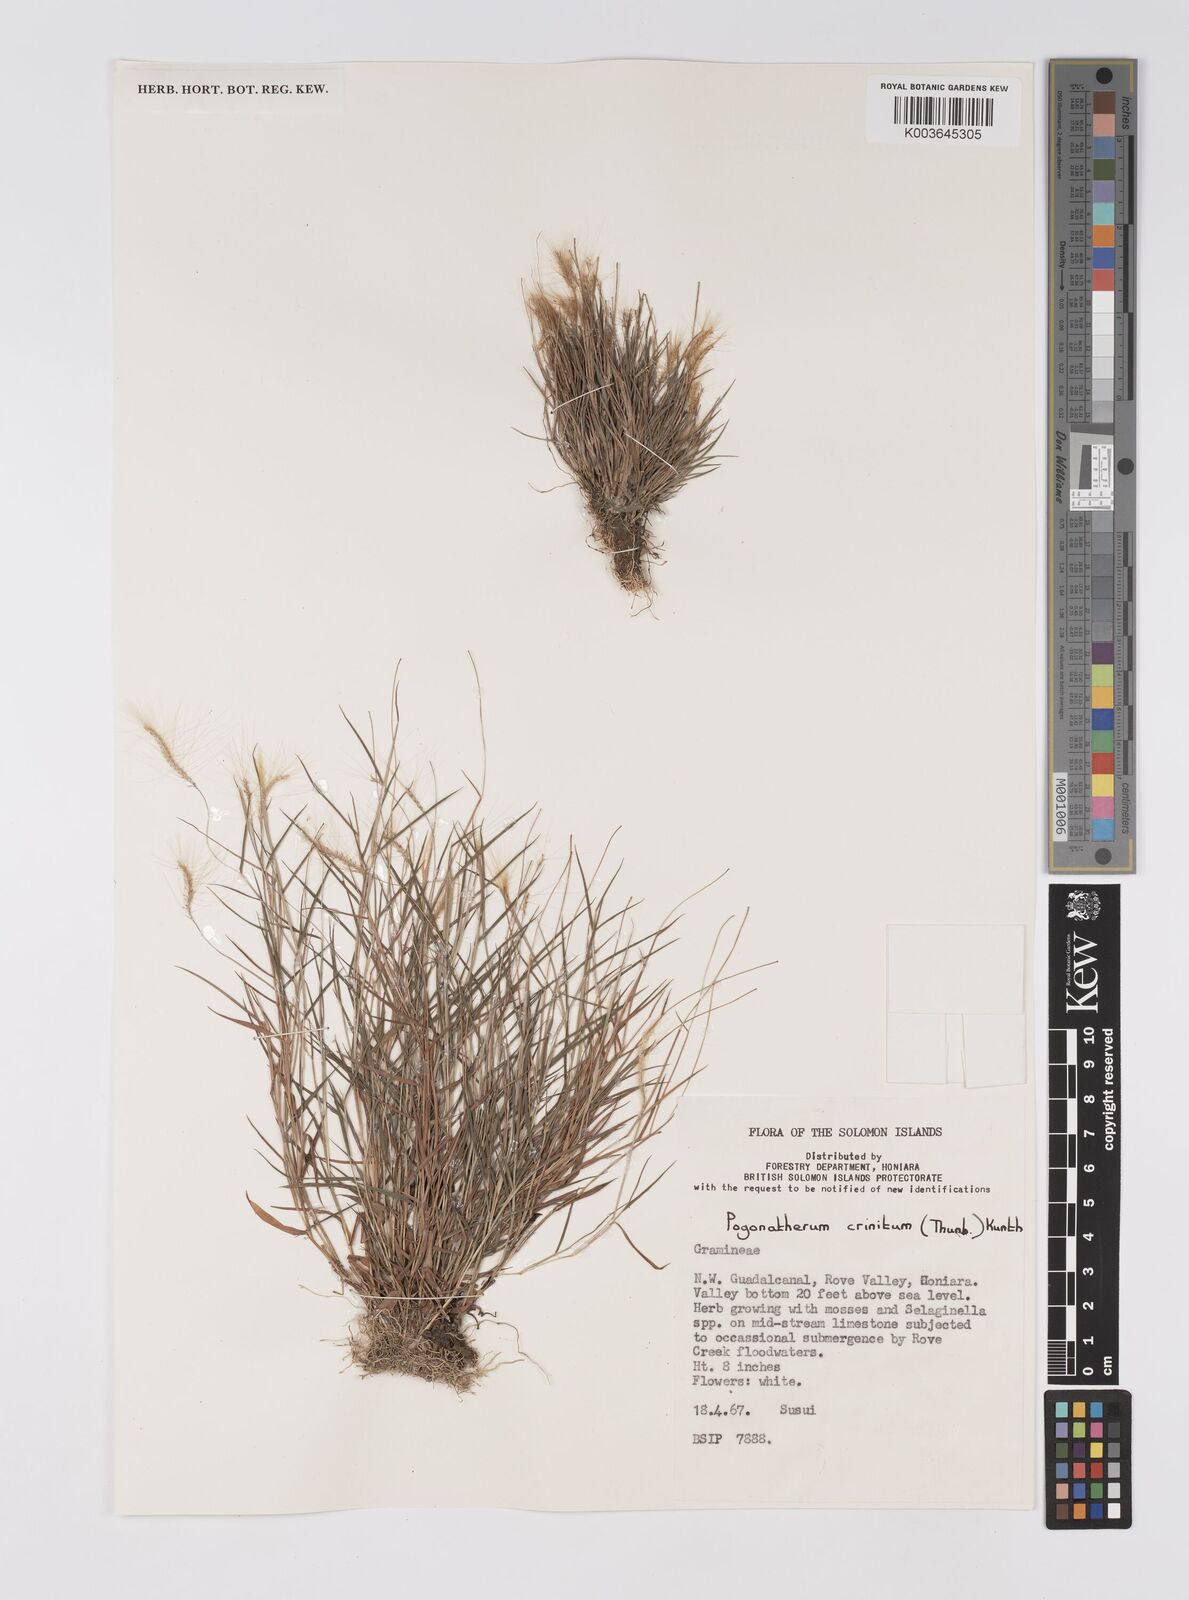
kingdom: Plantae
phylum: Tracheophyta
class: Liliopsida
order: Poales
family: Poaceae
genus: Pogonatherum
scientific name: Pogonatherum crinitum
